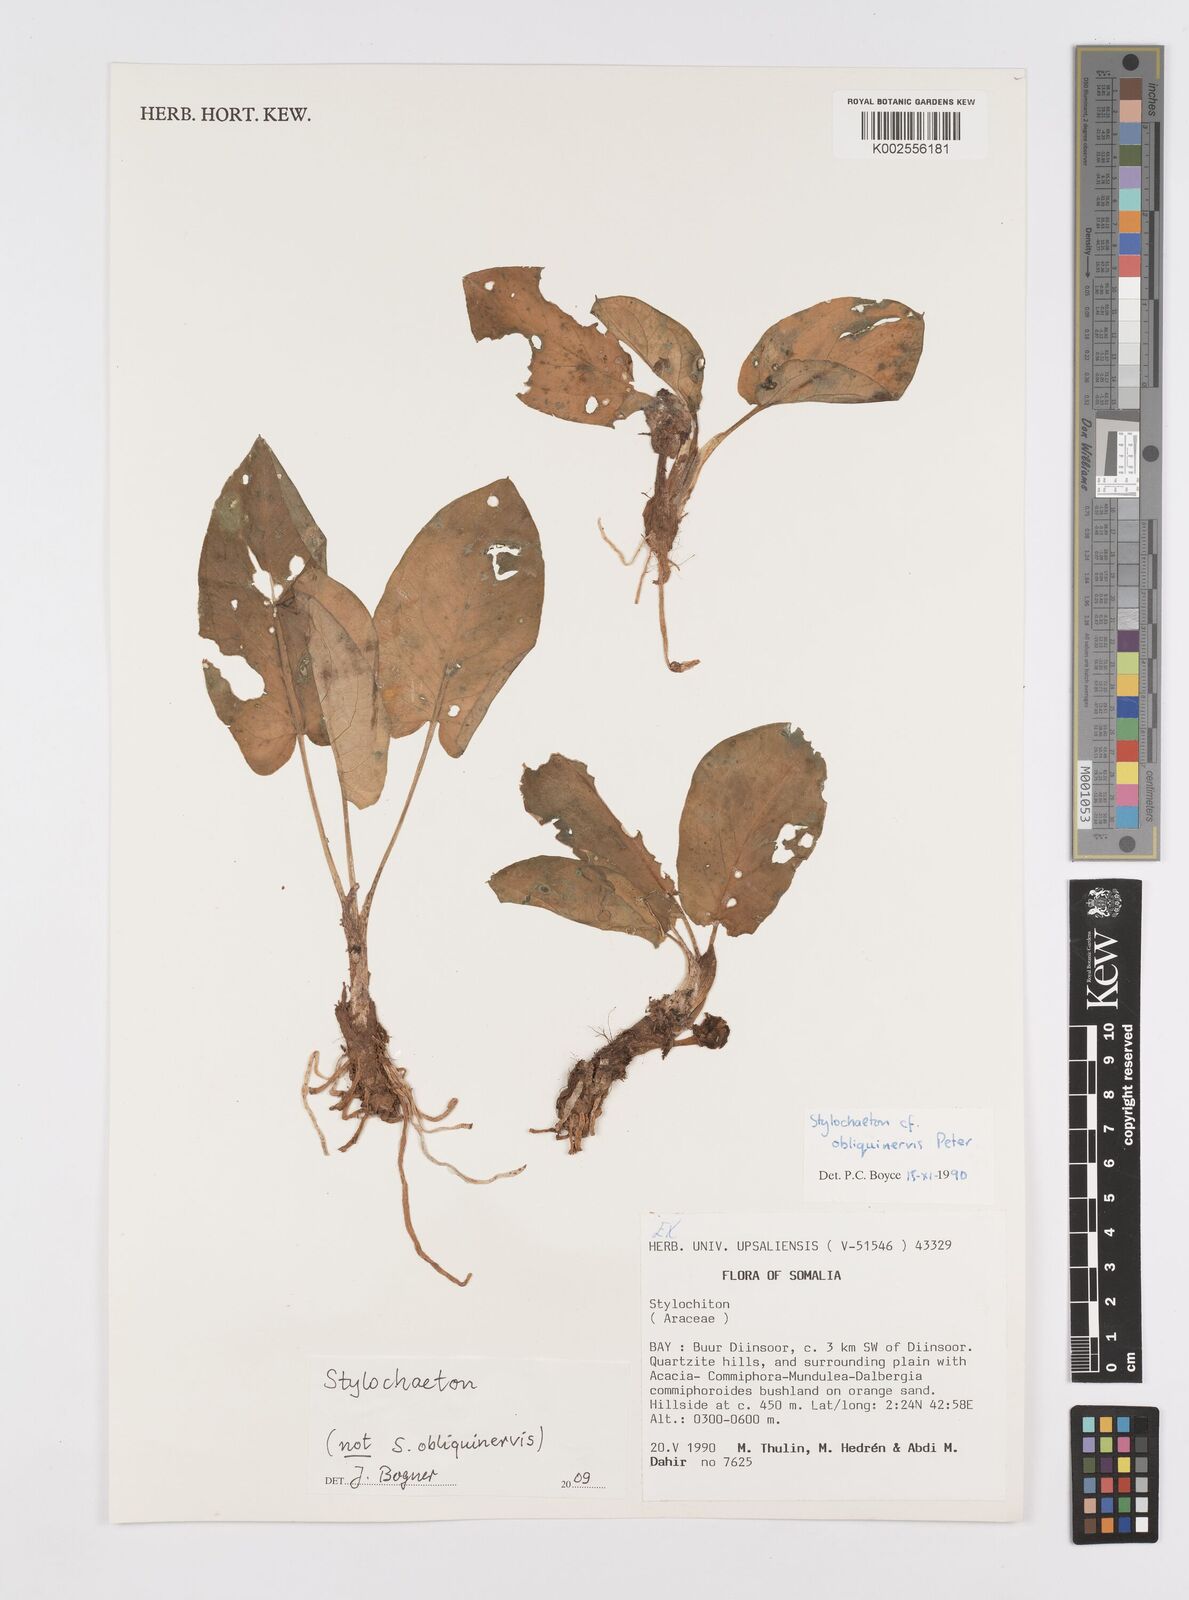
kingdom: Plantae
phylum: Tracheophyta
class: Liliopsida
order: Alismatales
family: Araceae
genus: Stylochaeton
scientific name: Stylochaeton
